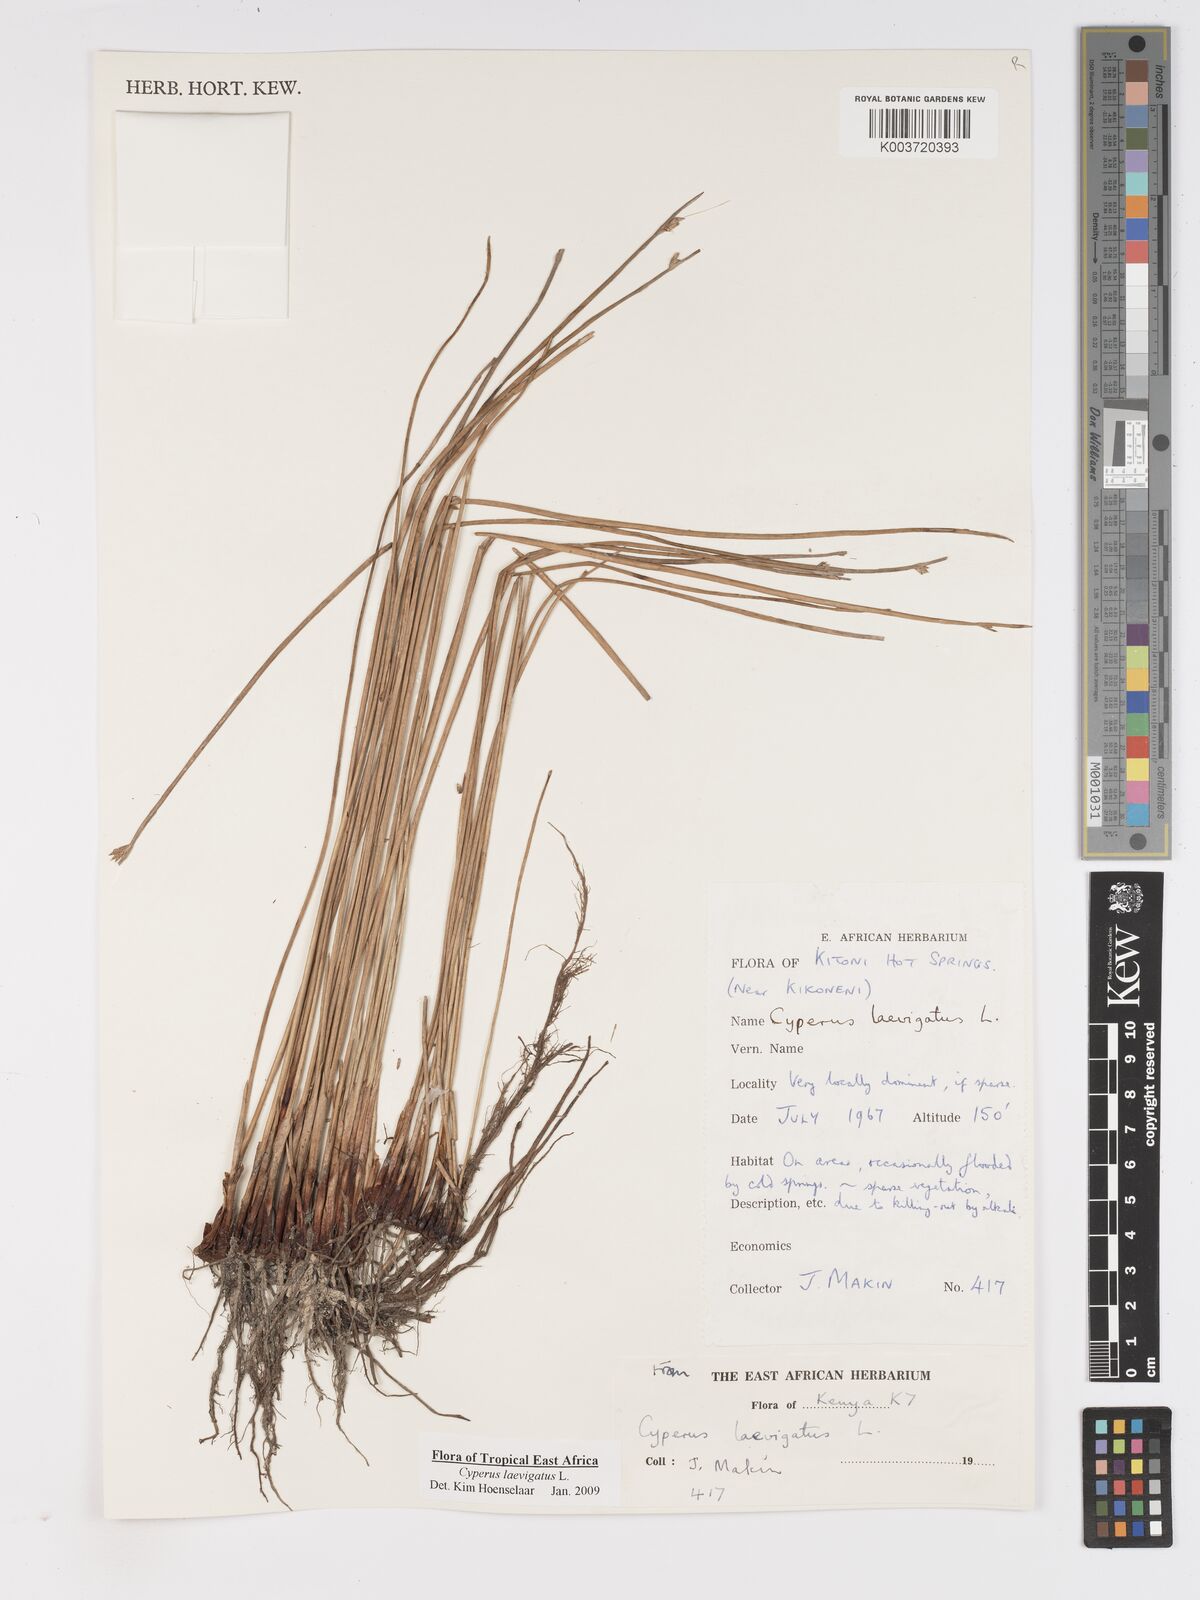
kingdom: Plantae
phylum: Tracheophyta
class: Liliopsida
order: Poales
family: Cyperaceae
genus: Cyperus
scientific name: Cyperus laevigatus
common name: Smooth flat sedge
